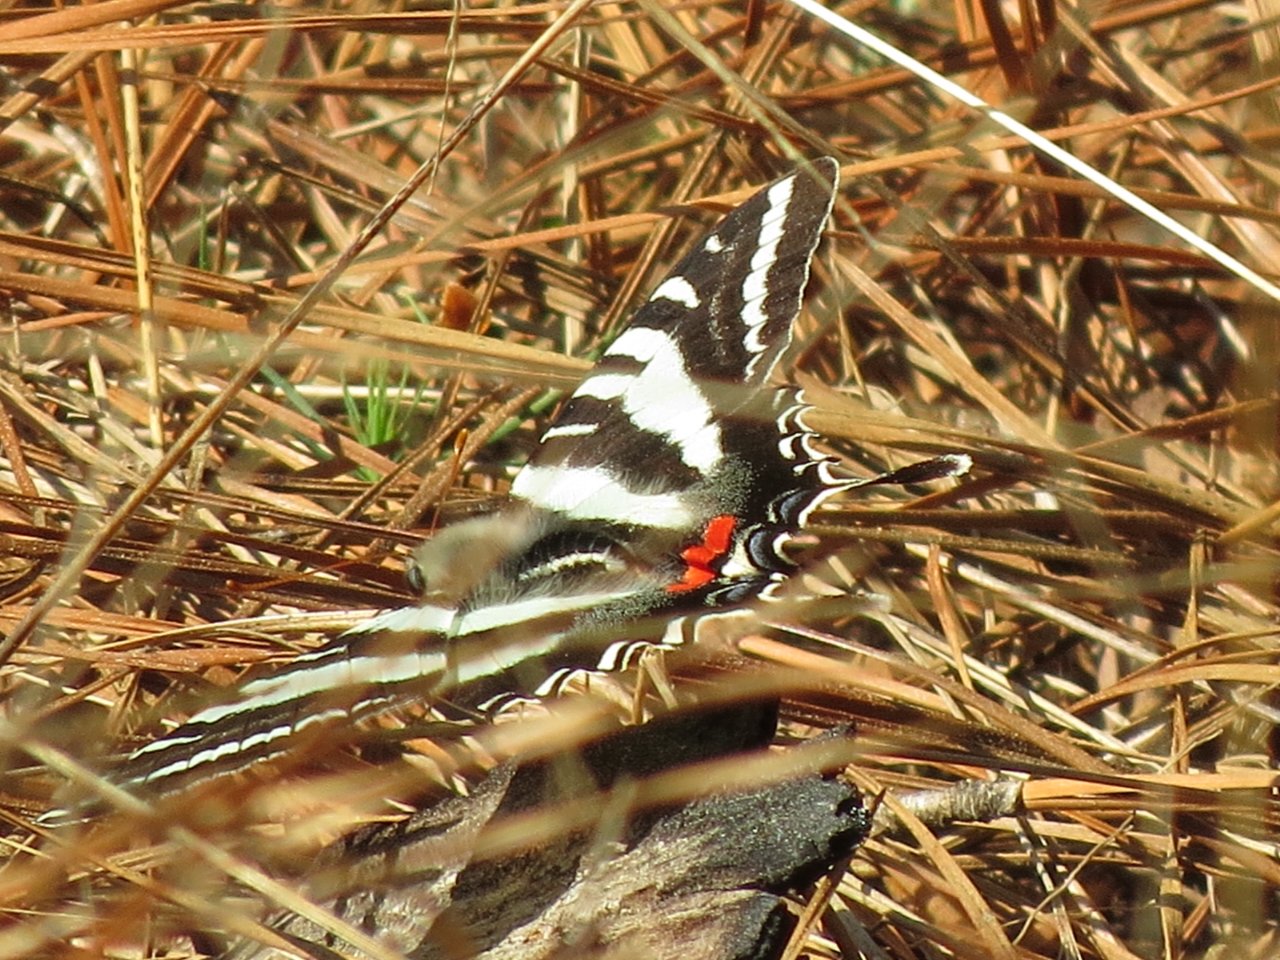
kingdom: Animalia
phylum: Arthropoda
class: Insecta
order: Lepidoptera
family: Papilionidae
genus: Protographium
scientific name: Protographium marcellus
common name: Zebra Swallowtail
